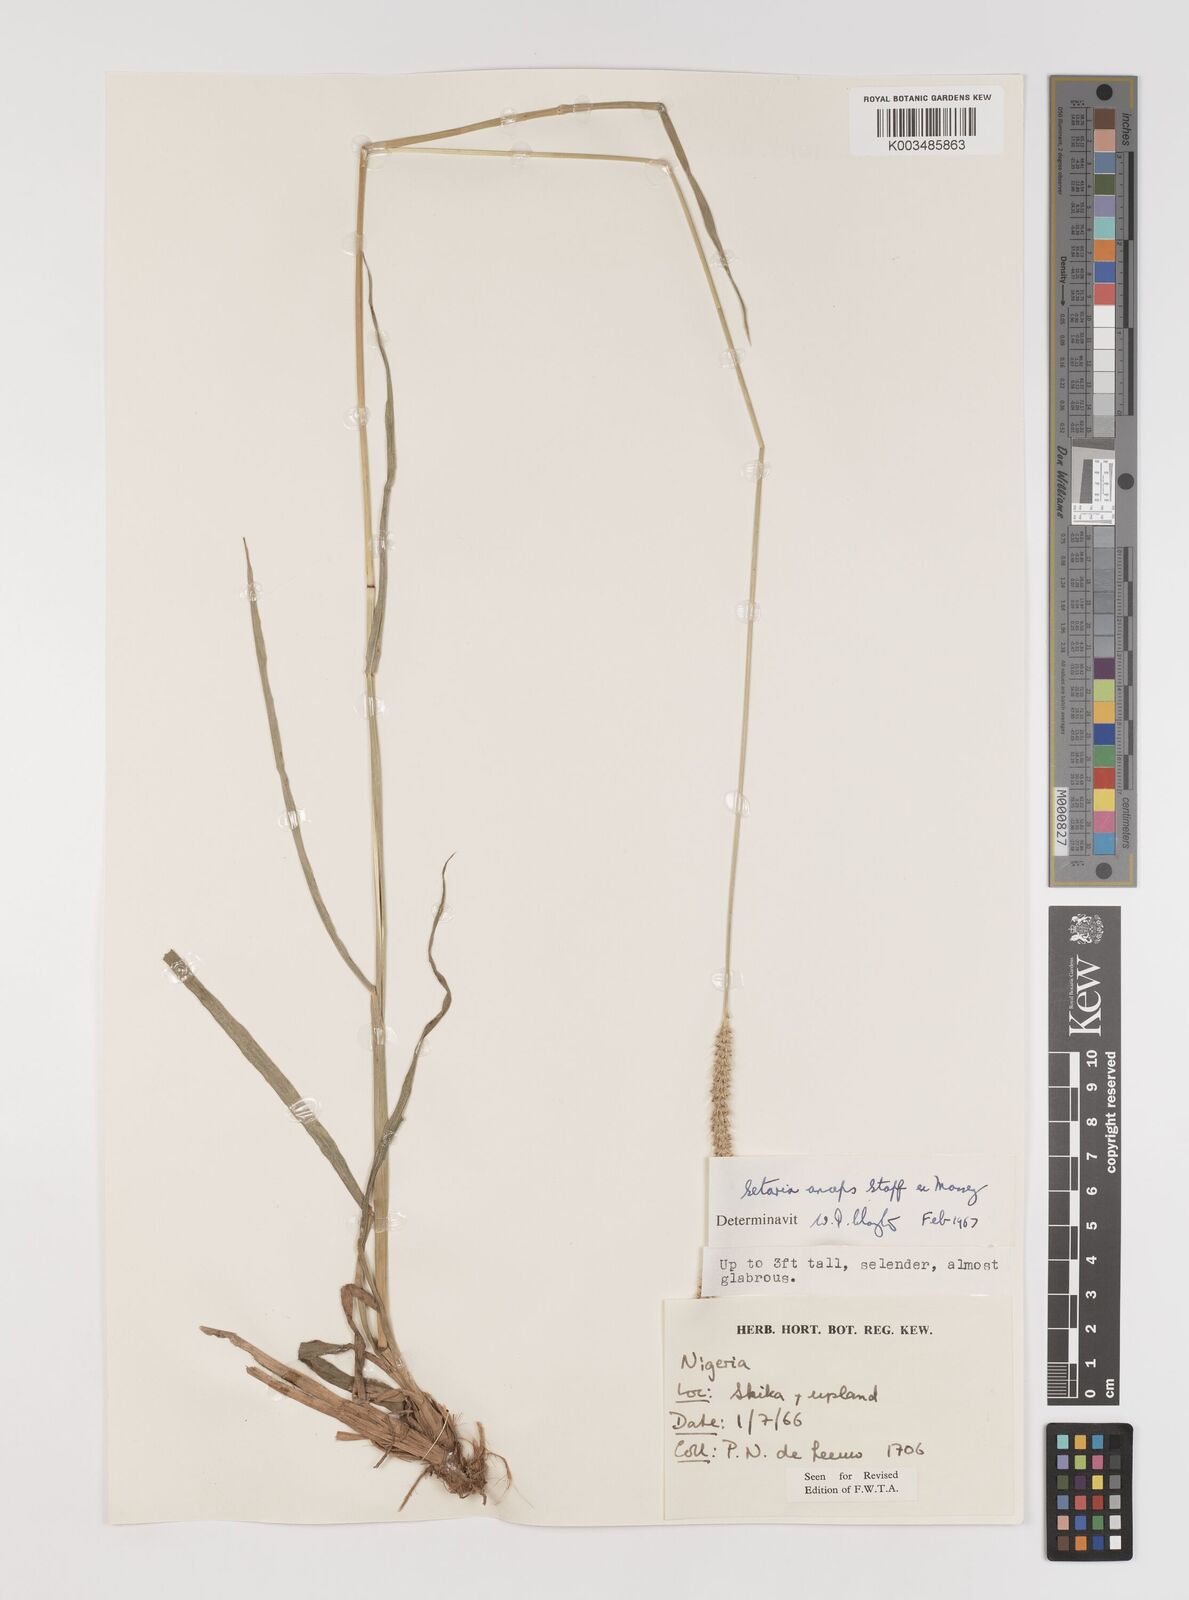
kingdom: Plantae
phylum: Tracheophyta
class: Liliopsida
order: Poales
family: Poaceae
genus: Setaria
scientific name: Setaria sphacelata
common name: African bristlegrass
